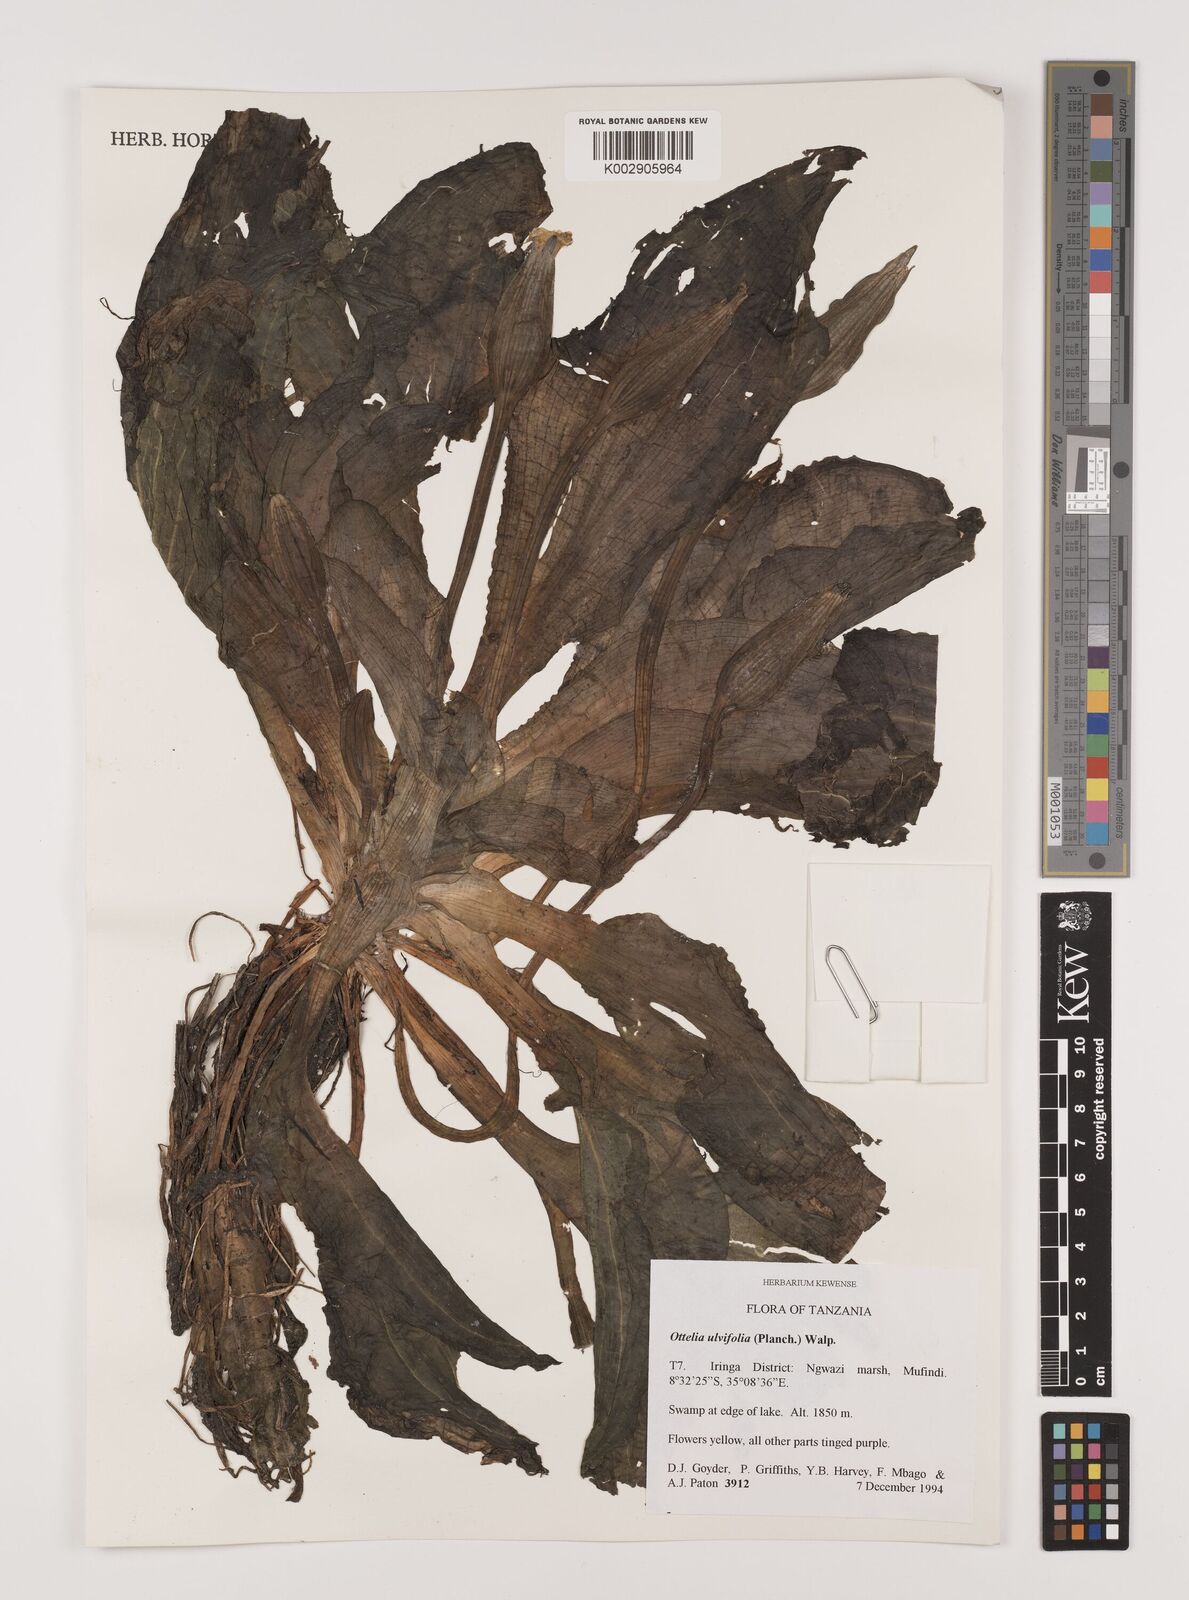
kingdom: Plantae
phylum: Tracheophyta
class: Liliopsida
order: Alismatales
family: Hydrocharitaceae
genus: Ottelia
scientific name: Ottelia ulvifolia
